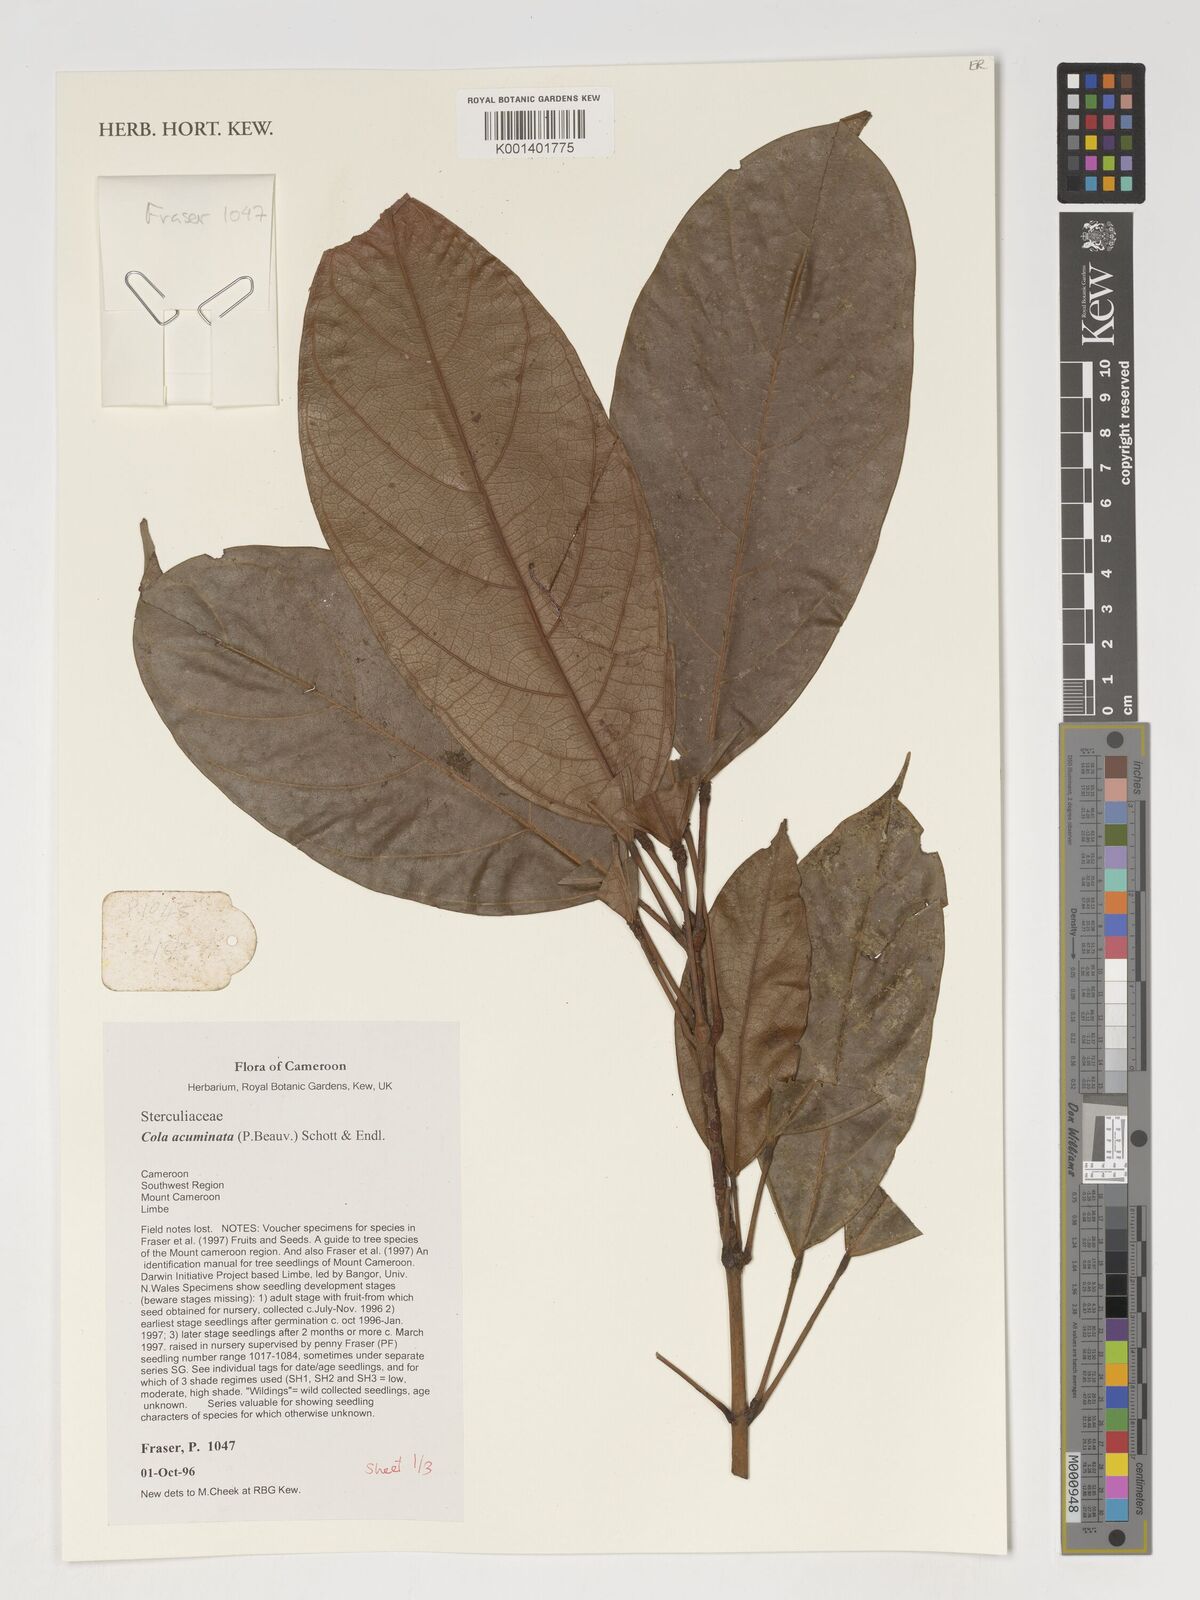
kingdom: Plantae
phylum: Tracheophyta
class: Magnoliopsida
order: Malvales
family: Malvaceae
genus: Cola
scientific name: Cola acuminata
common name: True kola
